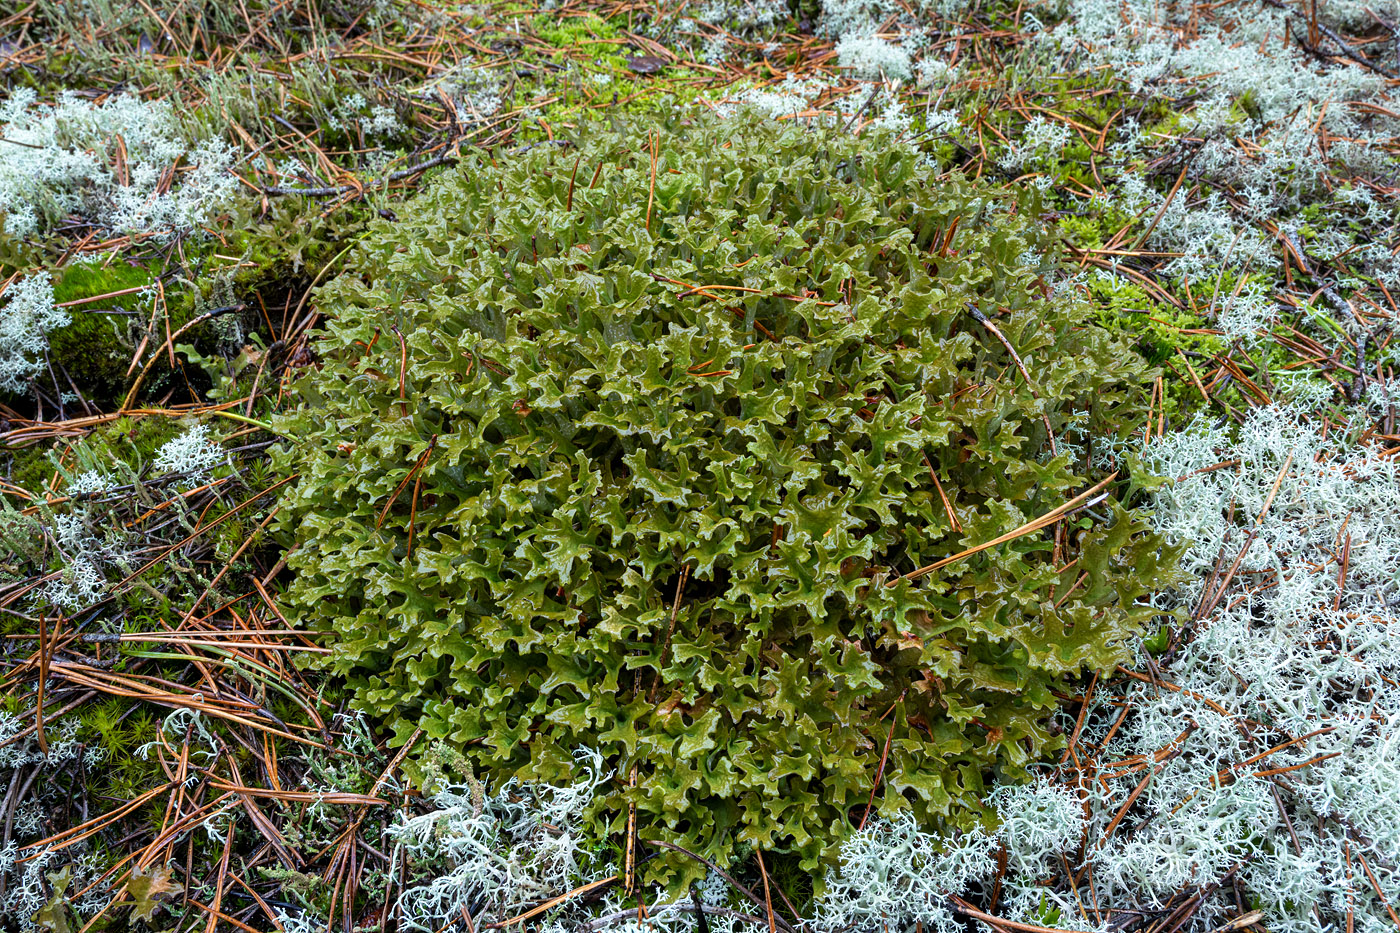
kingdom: Fungi
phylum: Ascomycota
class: Lecanoromycetes
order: Lecanorales
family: Parmeliaceae
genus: Cetraria
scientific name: Cetraria islandica
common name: islandsk kruslav
